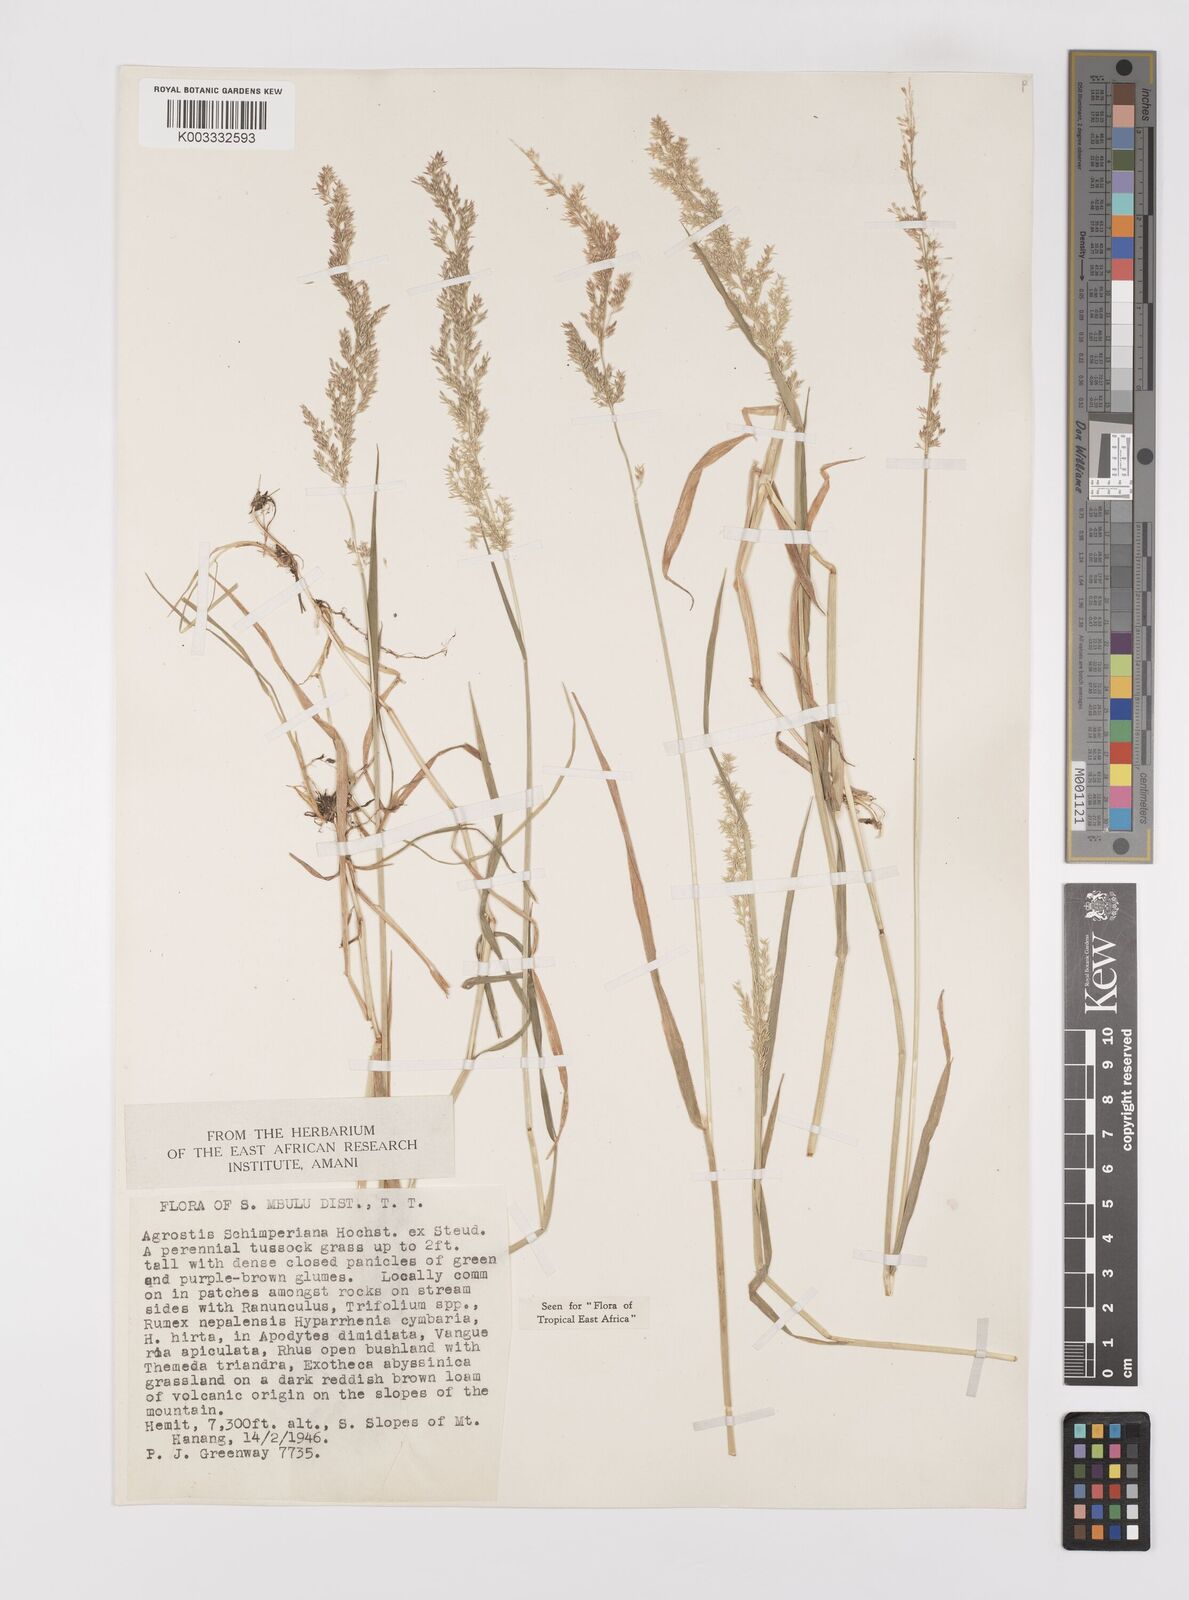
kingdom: Plantae
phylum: Tracheophyta
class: Liliopsida
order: Poales
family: Poaceae
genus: Polypogon
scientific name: Polypogon schimperianus
